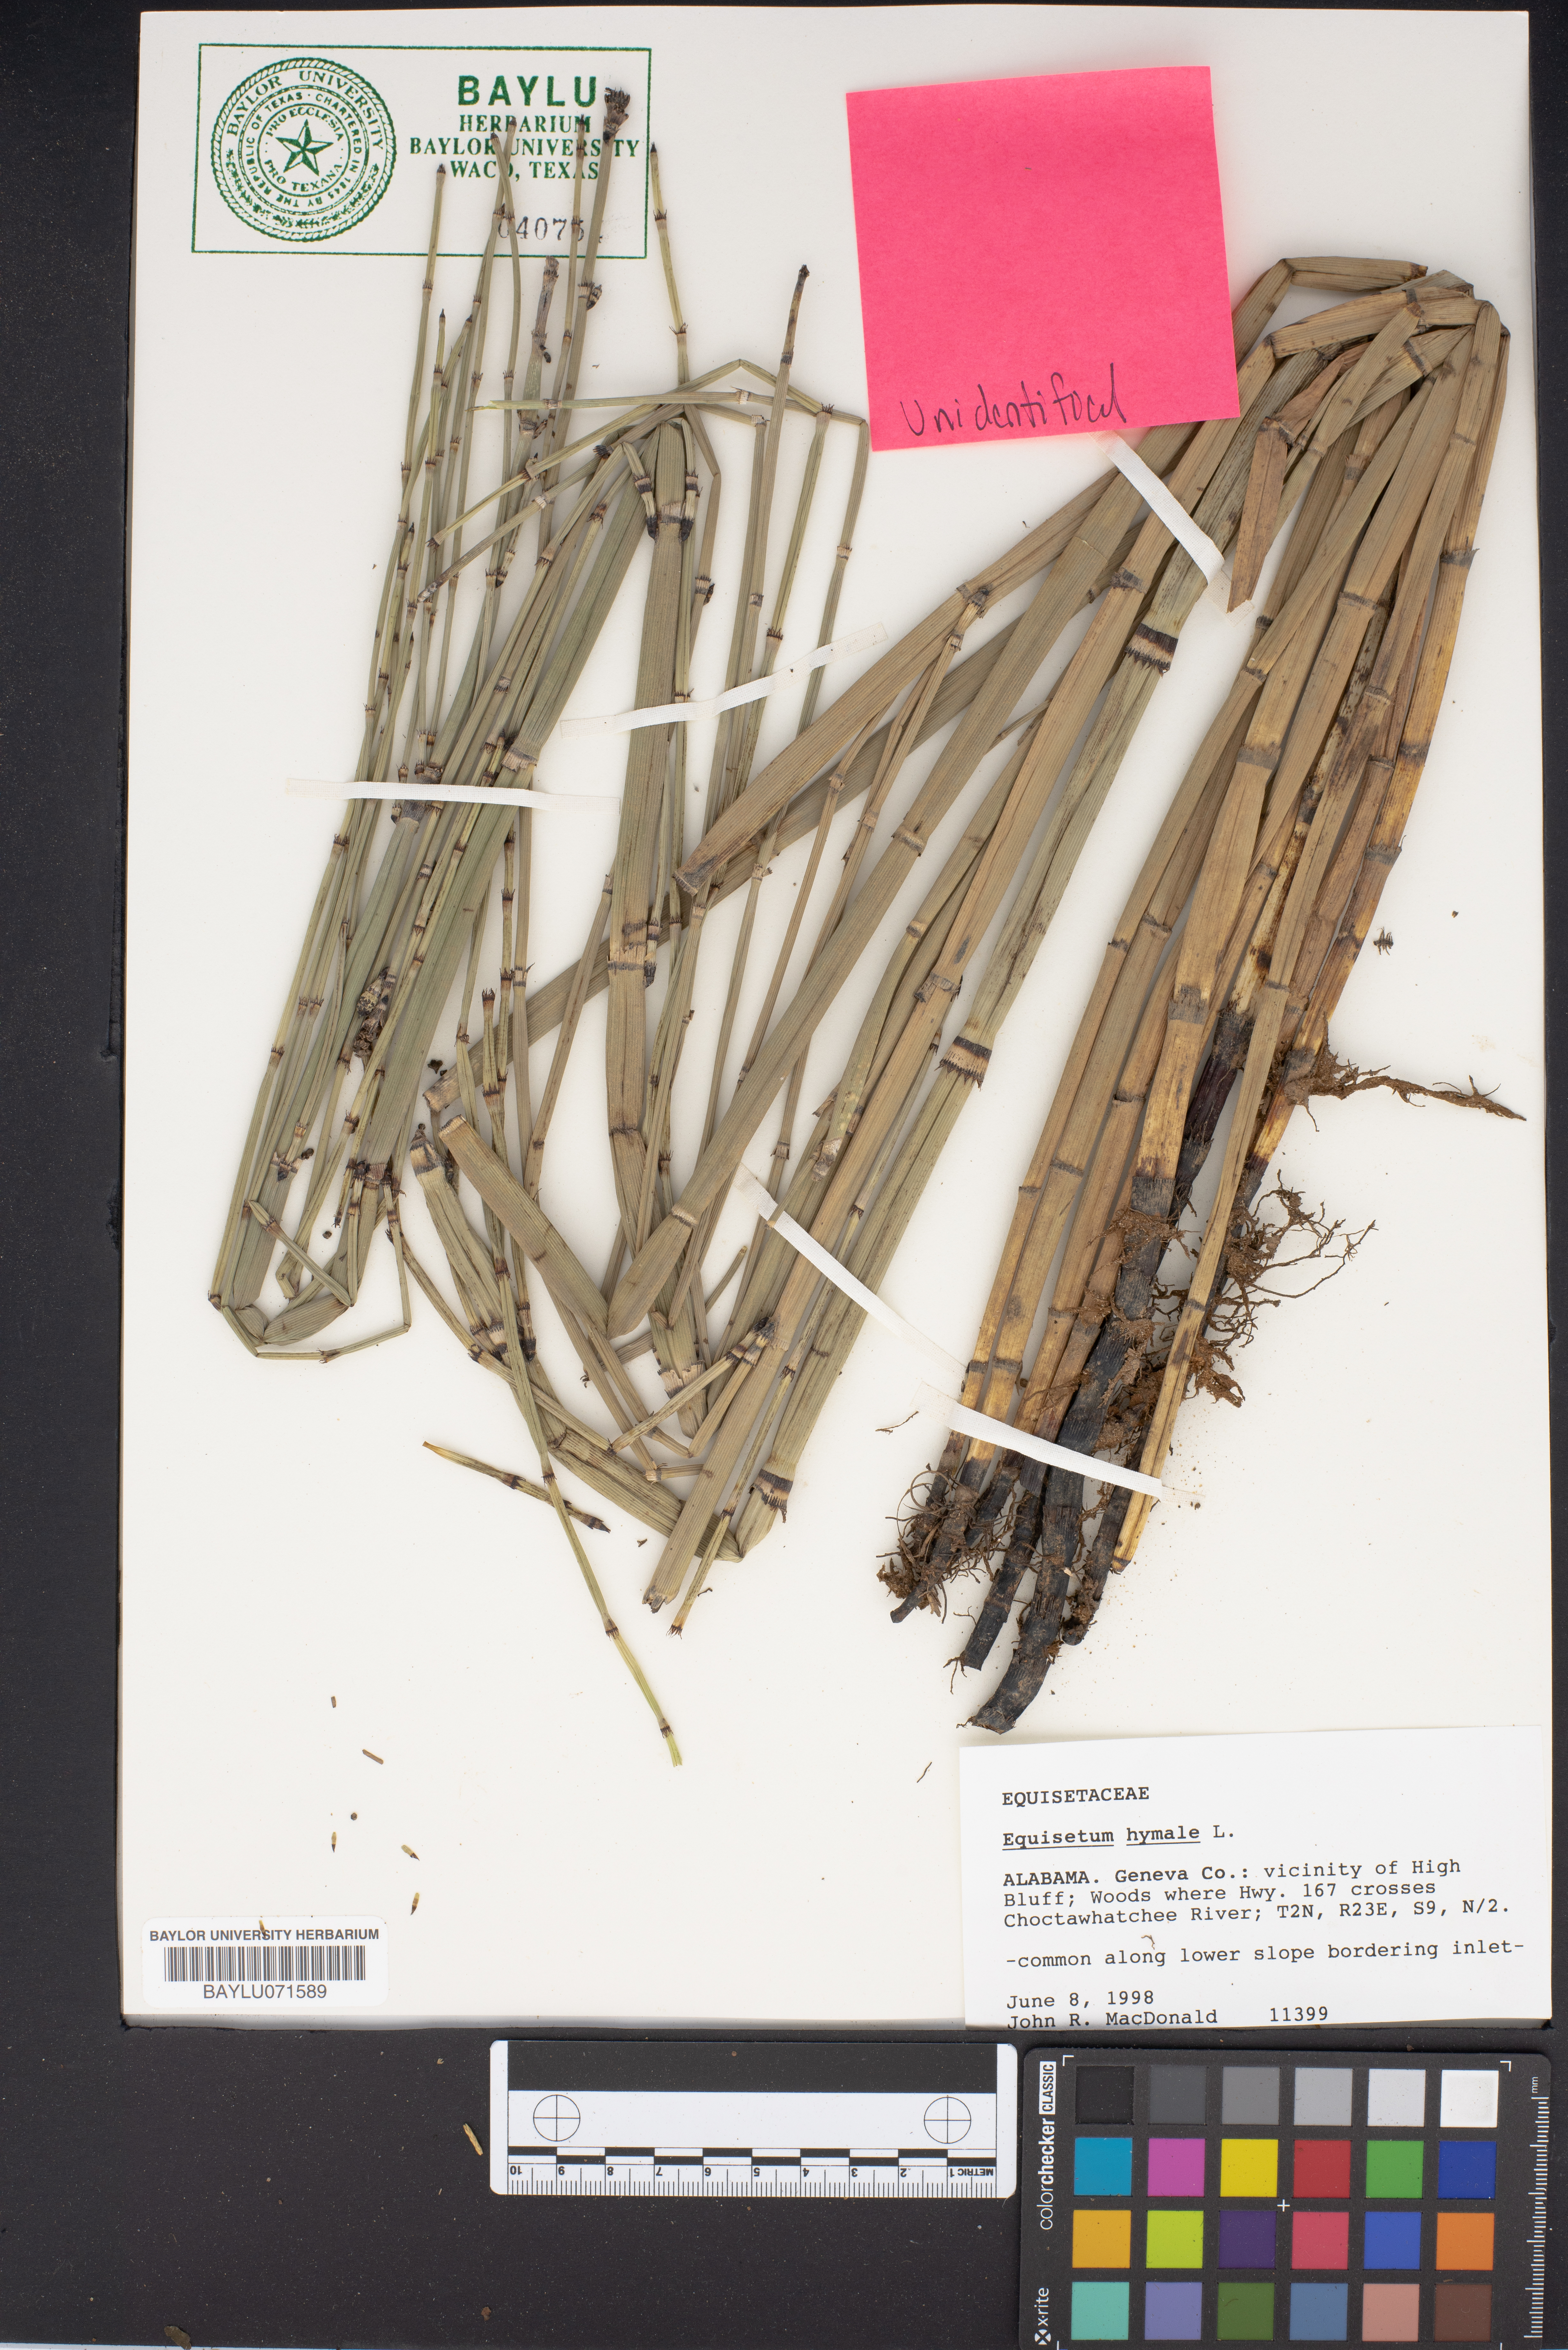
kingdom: Plantae
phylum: Tracheophyta
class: Polypodiopsida
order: Equisetales
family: Equisetaceae
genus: Equisetum
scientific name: Equisetum hyemale
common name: Rough horsetail
